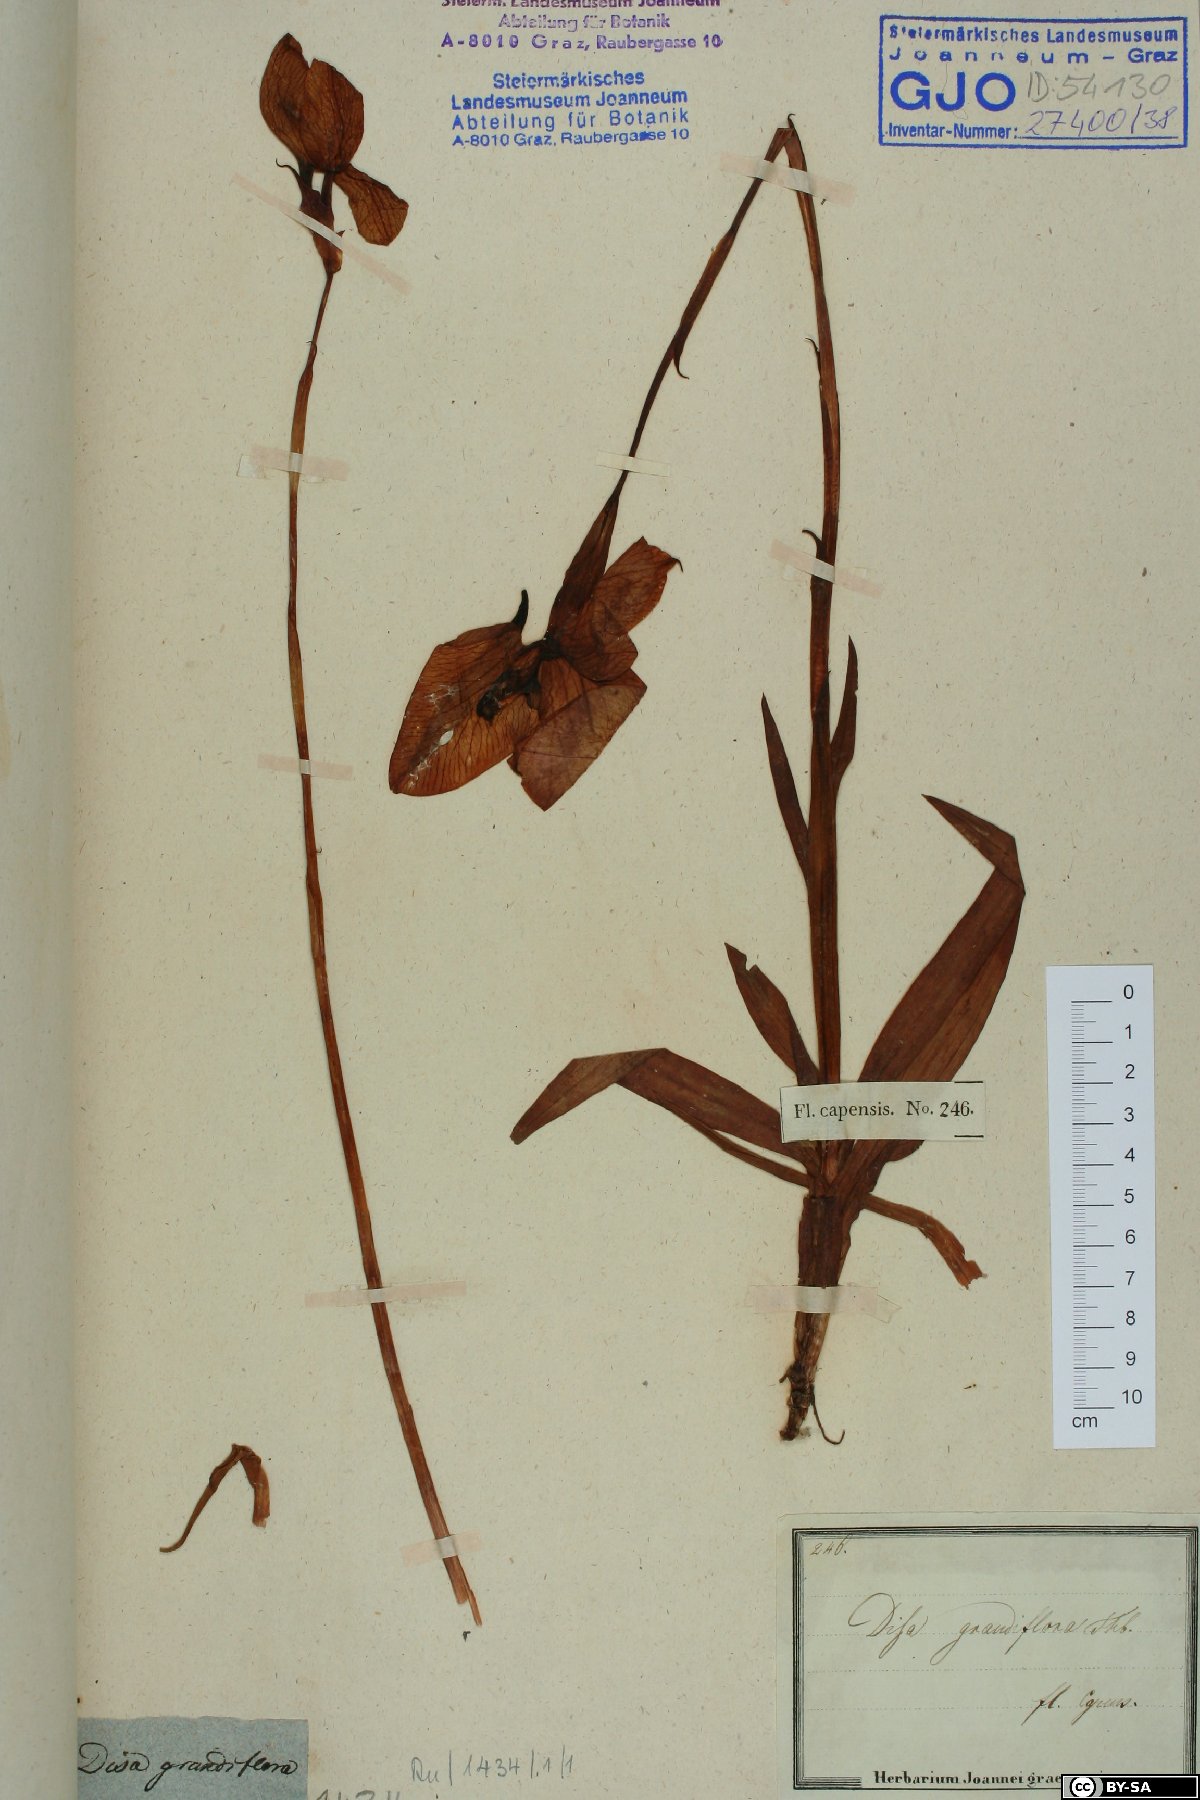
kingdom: Plantae
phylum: Tracheophyta
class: Liliopsida
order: Asparagales
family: Orchidaceae
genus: Disa
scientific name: Disa uniflora
